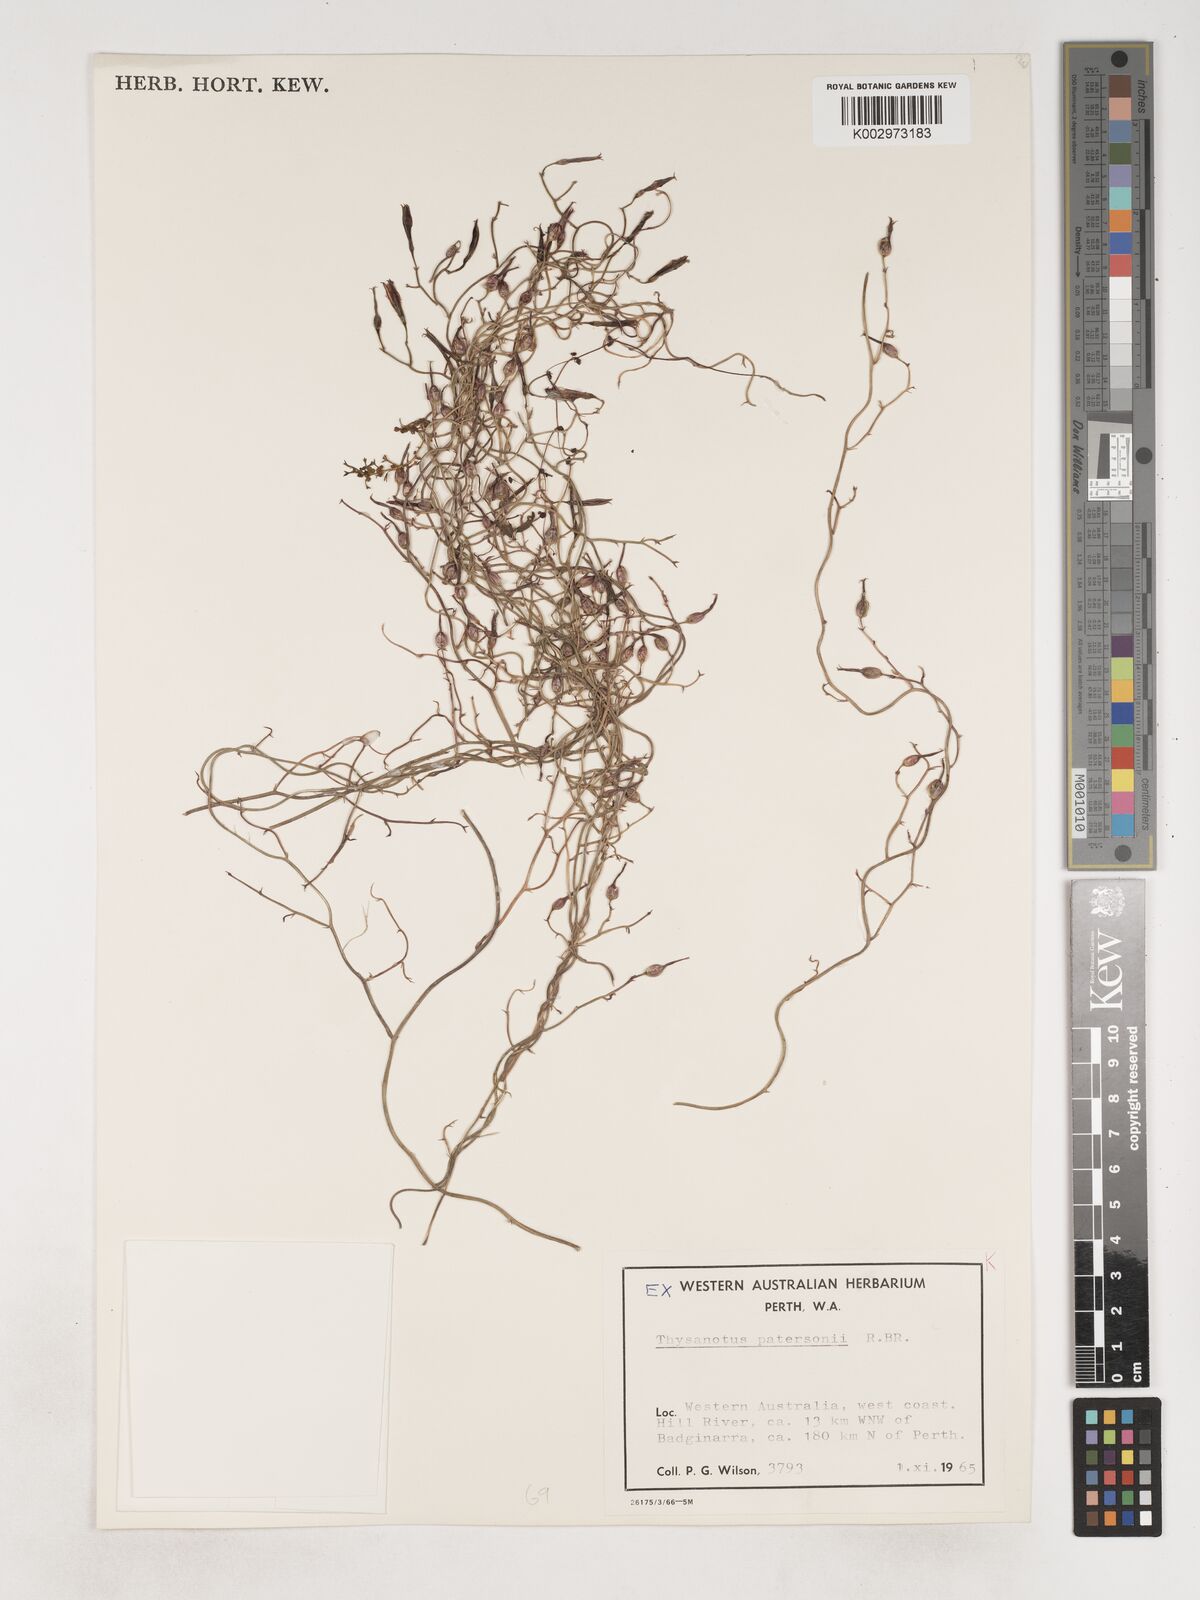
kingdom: Plantae
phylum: Tracheophyta
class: Liliopsida
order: Asparagales
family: Asparagaceae
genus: Thysanotus
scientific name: Thysanotus patersonii
